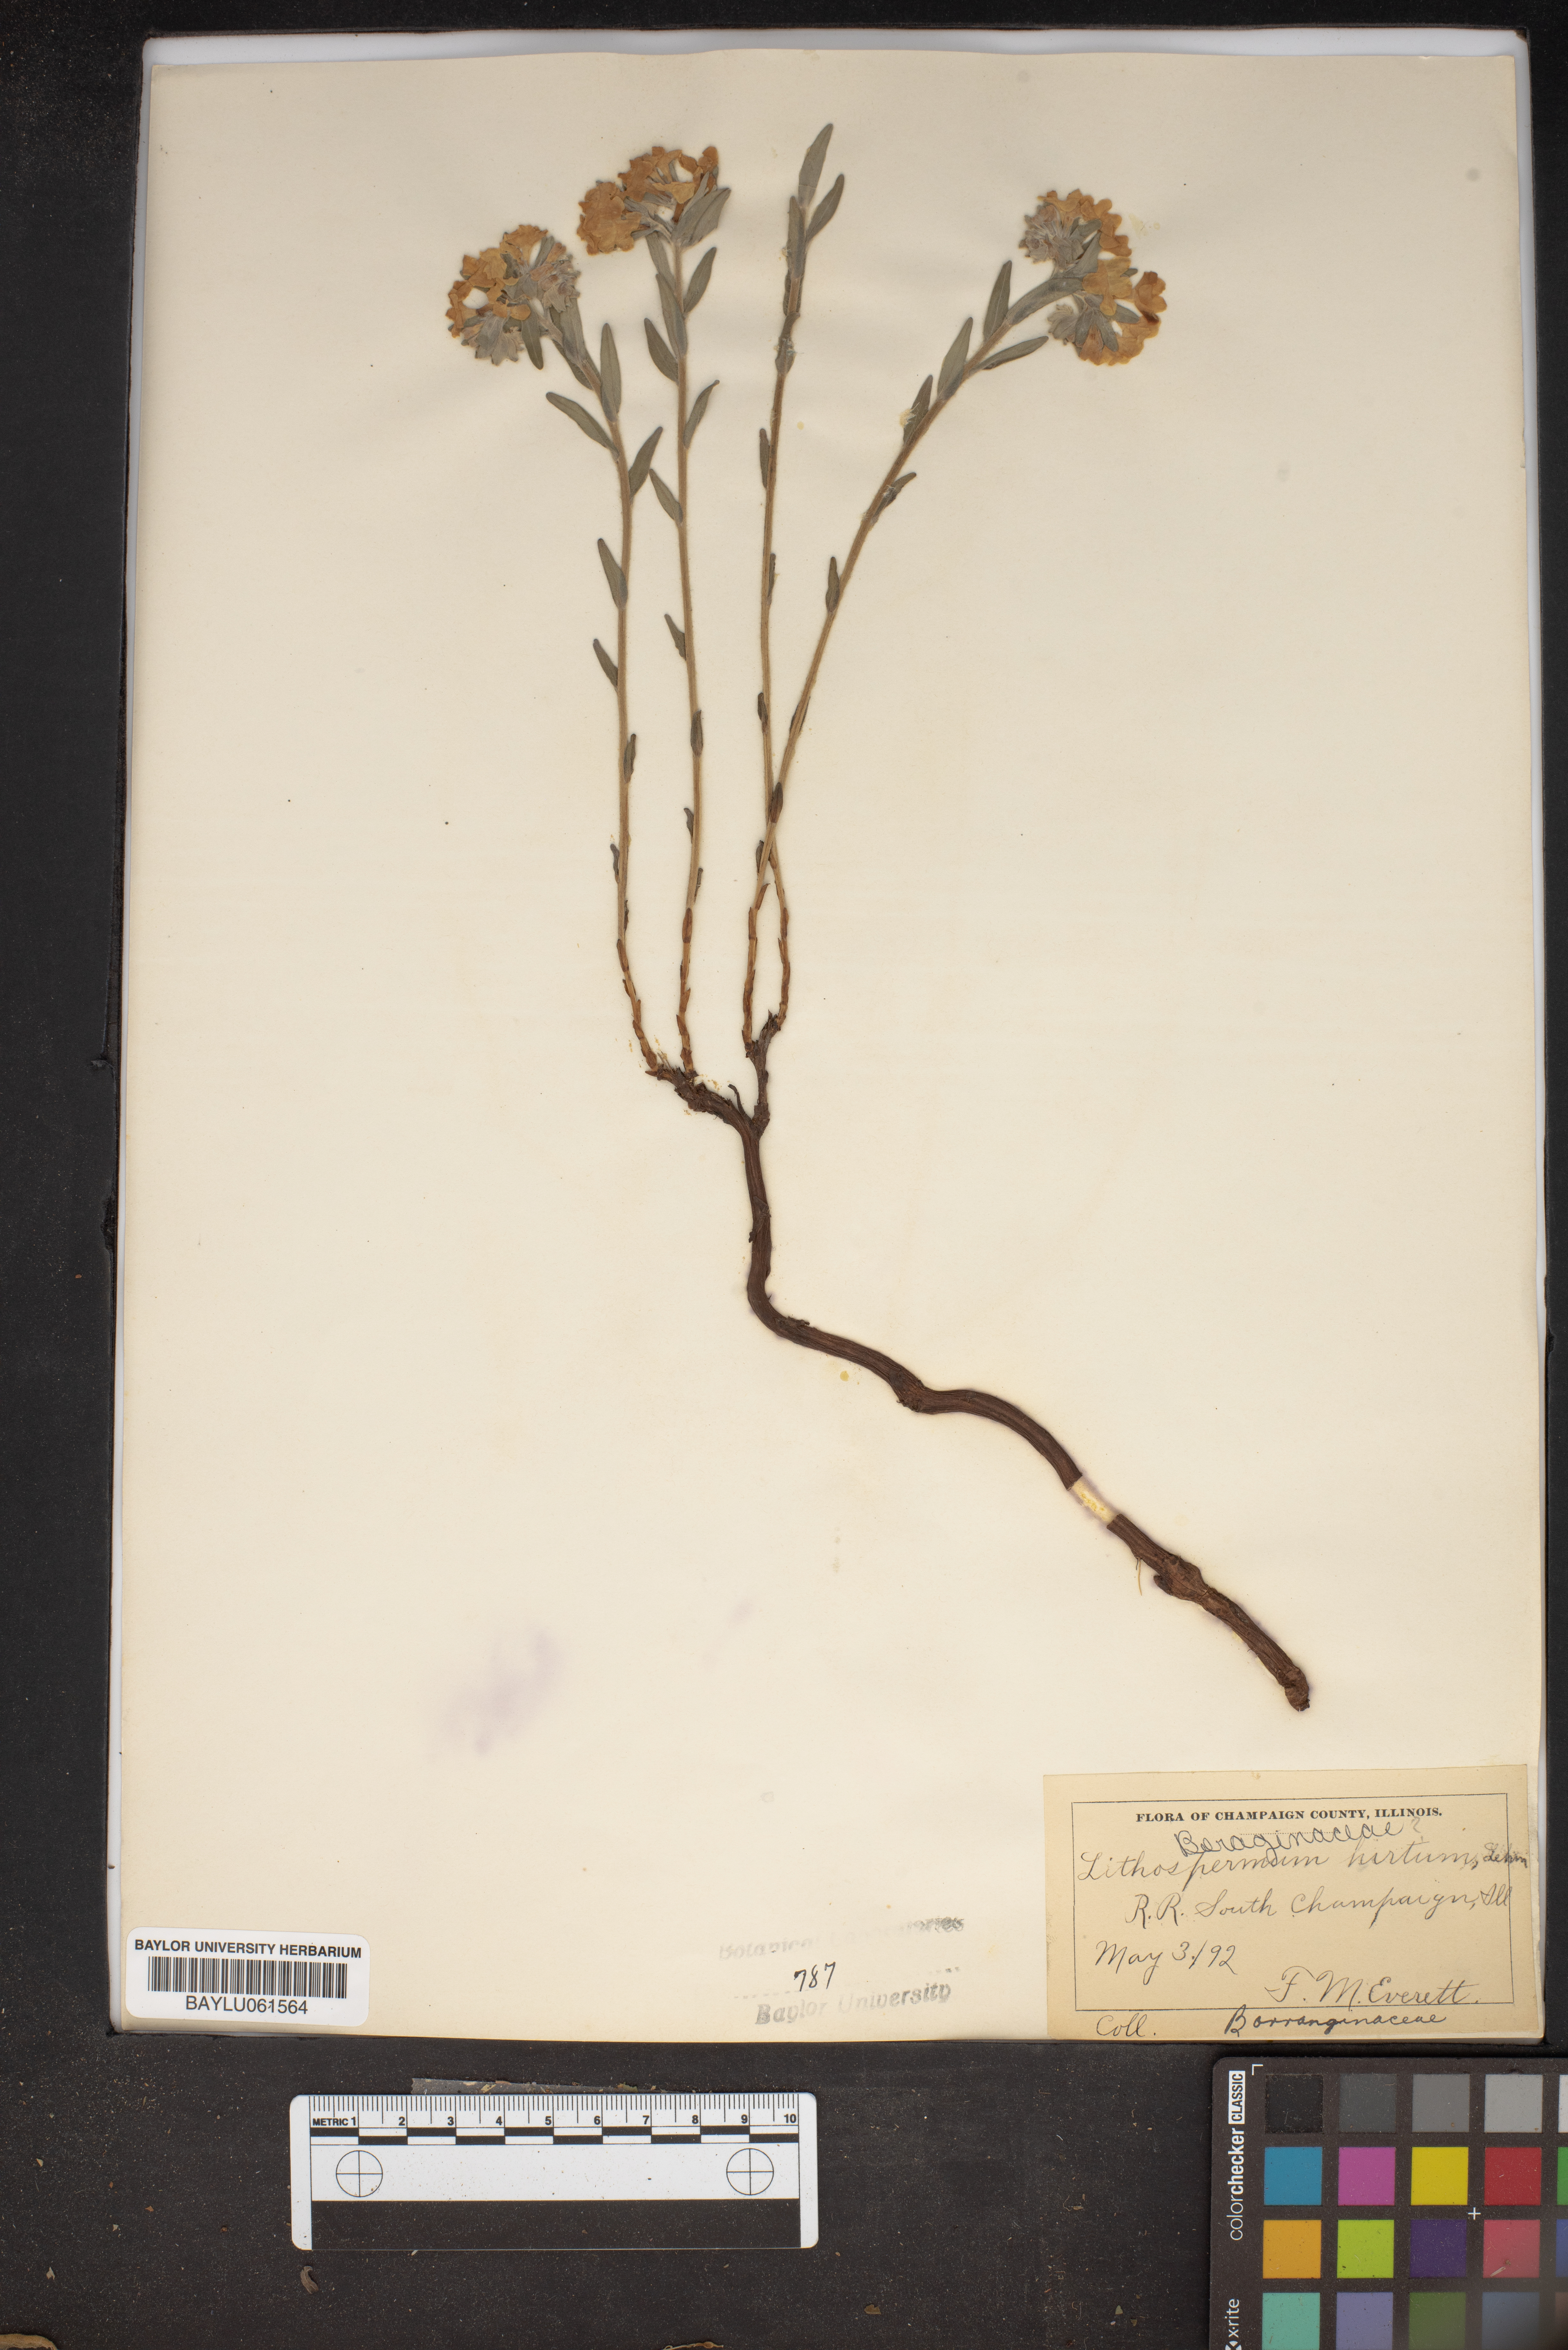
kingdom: Plantae
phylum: Tracheophyta
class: Magnoliopsida
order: Boraginales
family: Boraginaceae
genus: Lithospermum
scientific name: Lithospermum caroliniense
